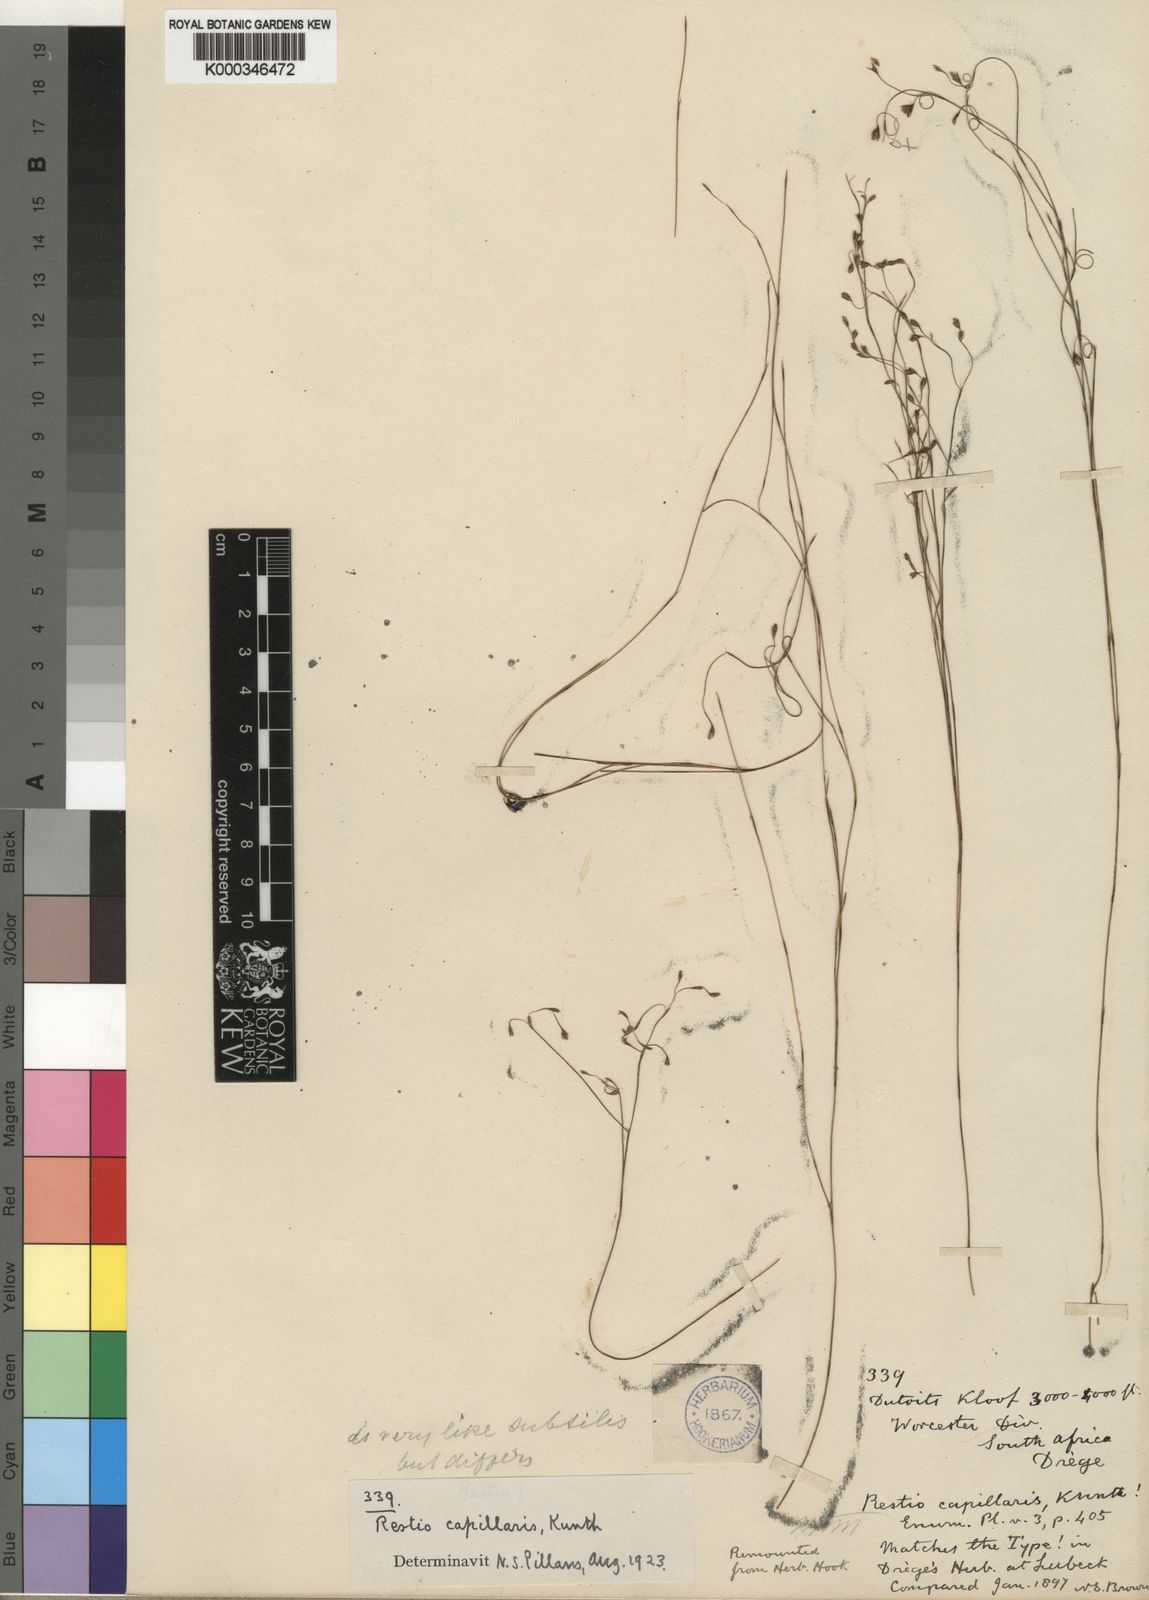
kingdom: Plantae
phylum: Tracheophyta
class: Liliopsida
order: Poales
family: Restionaceae
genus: Restio
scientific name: Restio capillaris
